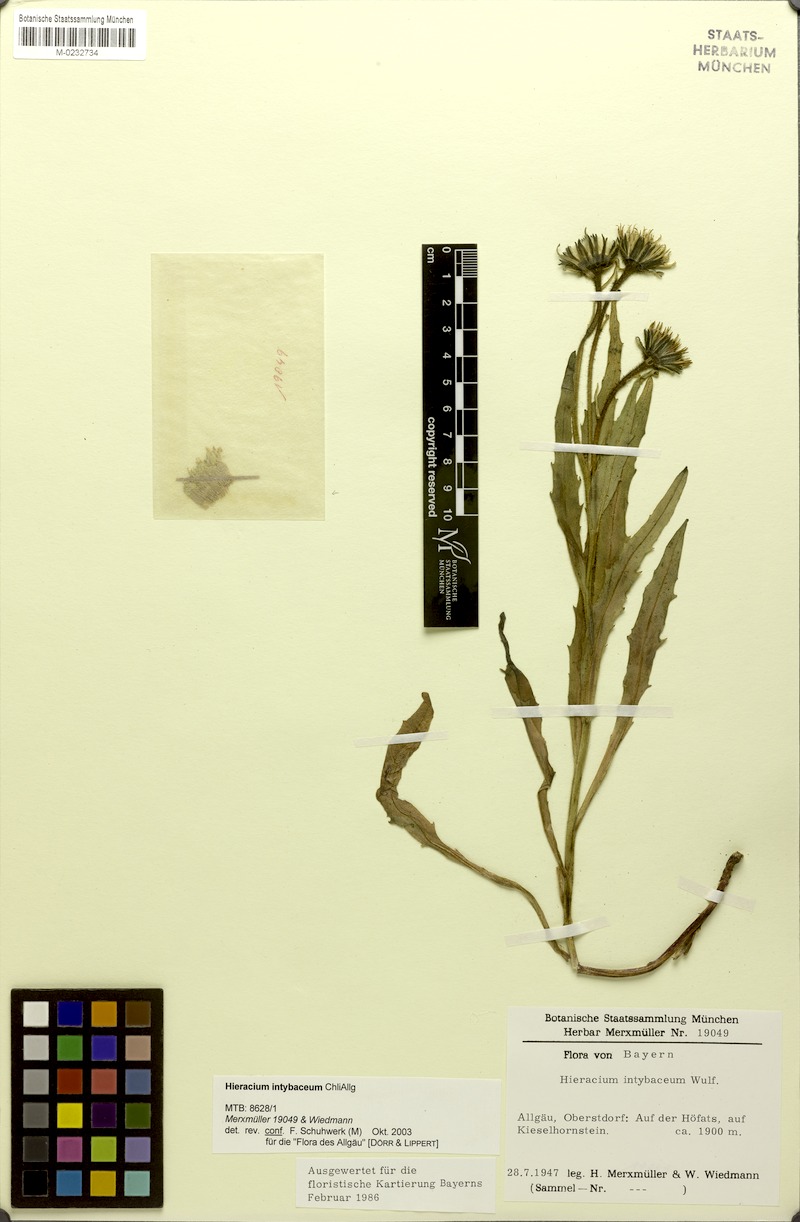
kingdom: Plantae
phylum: Tracheophyta
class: Magnoliopsida
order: Asterales
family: Asteraceae
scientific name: Asteraceae
